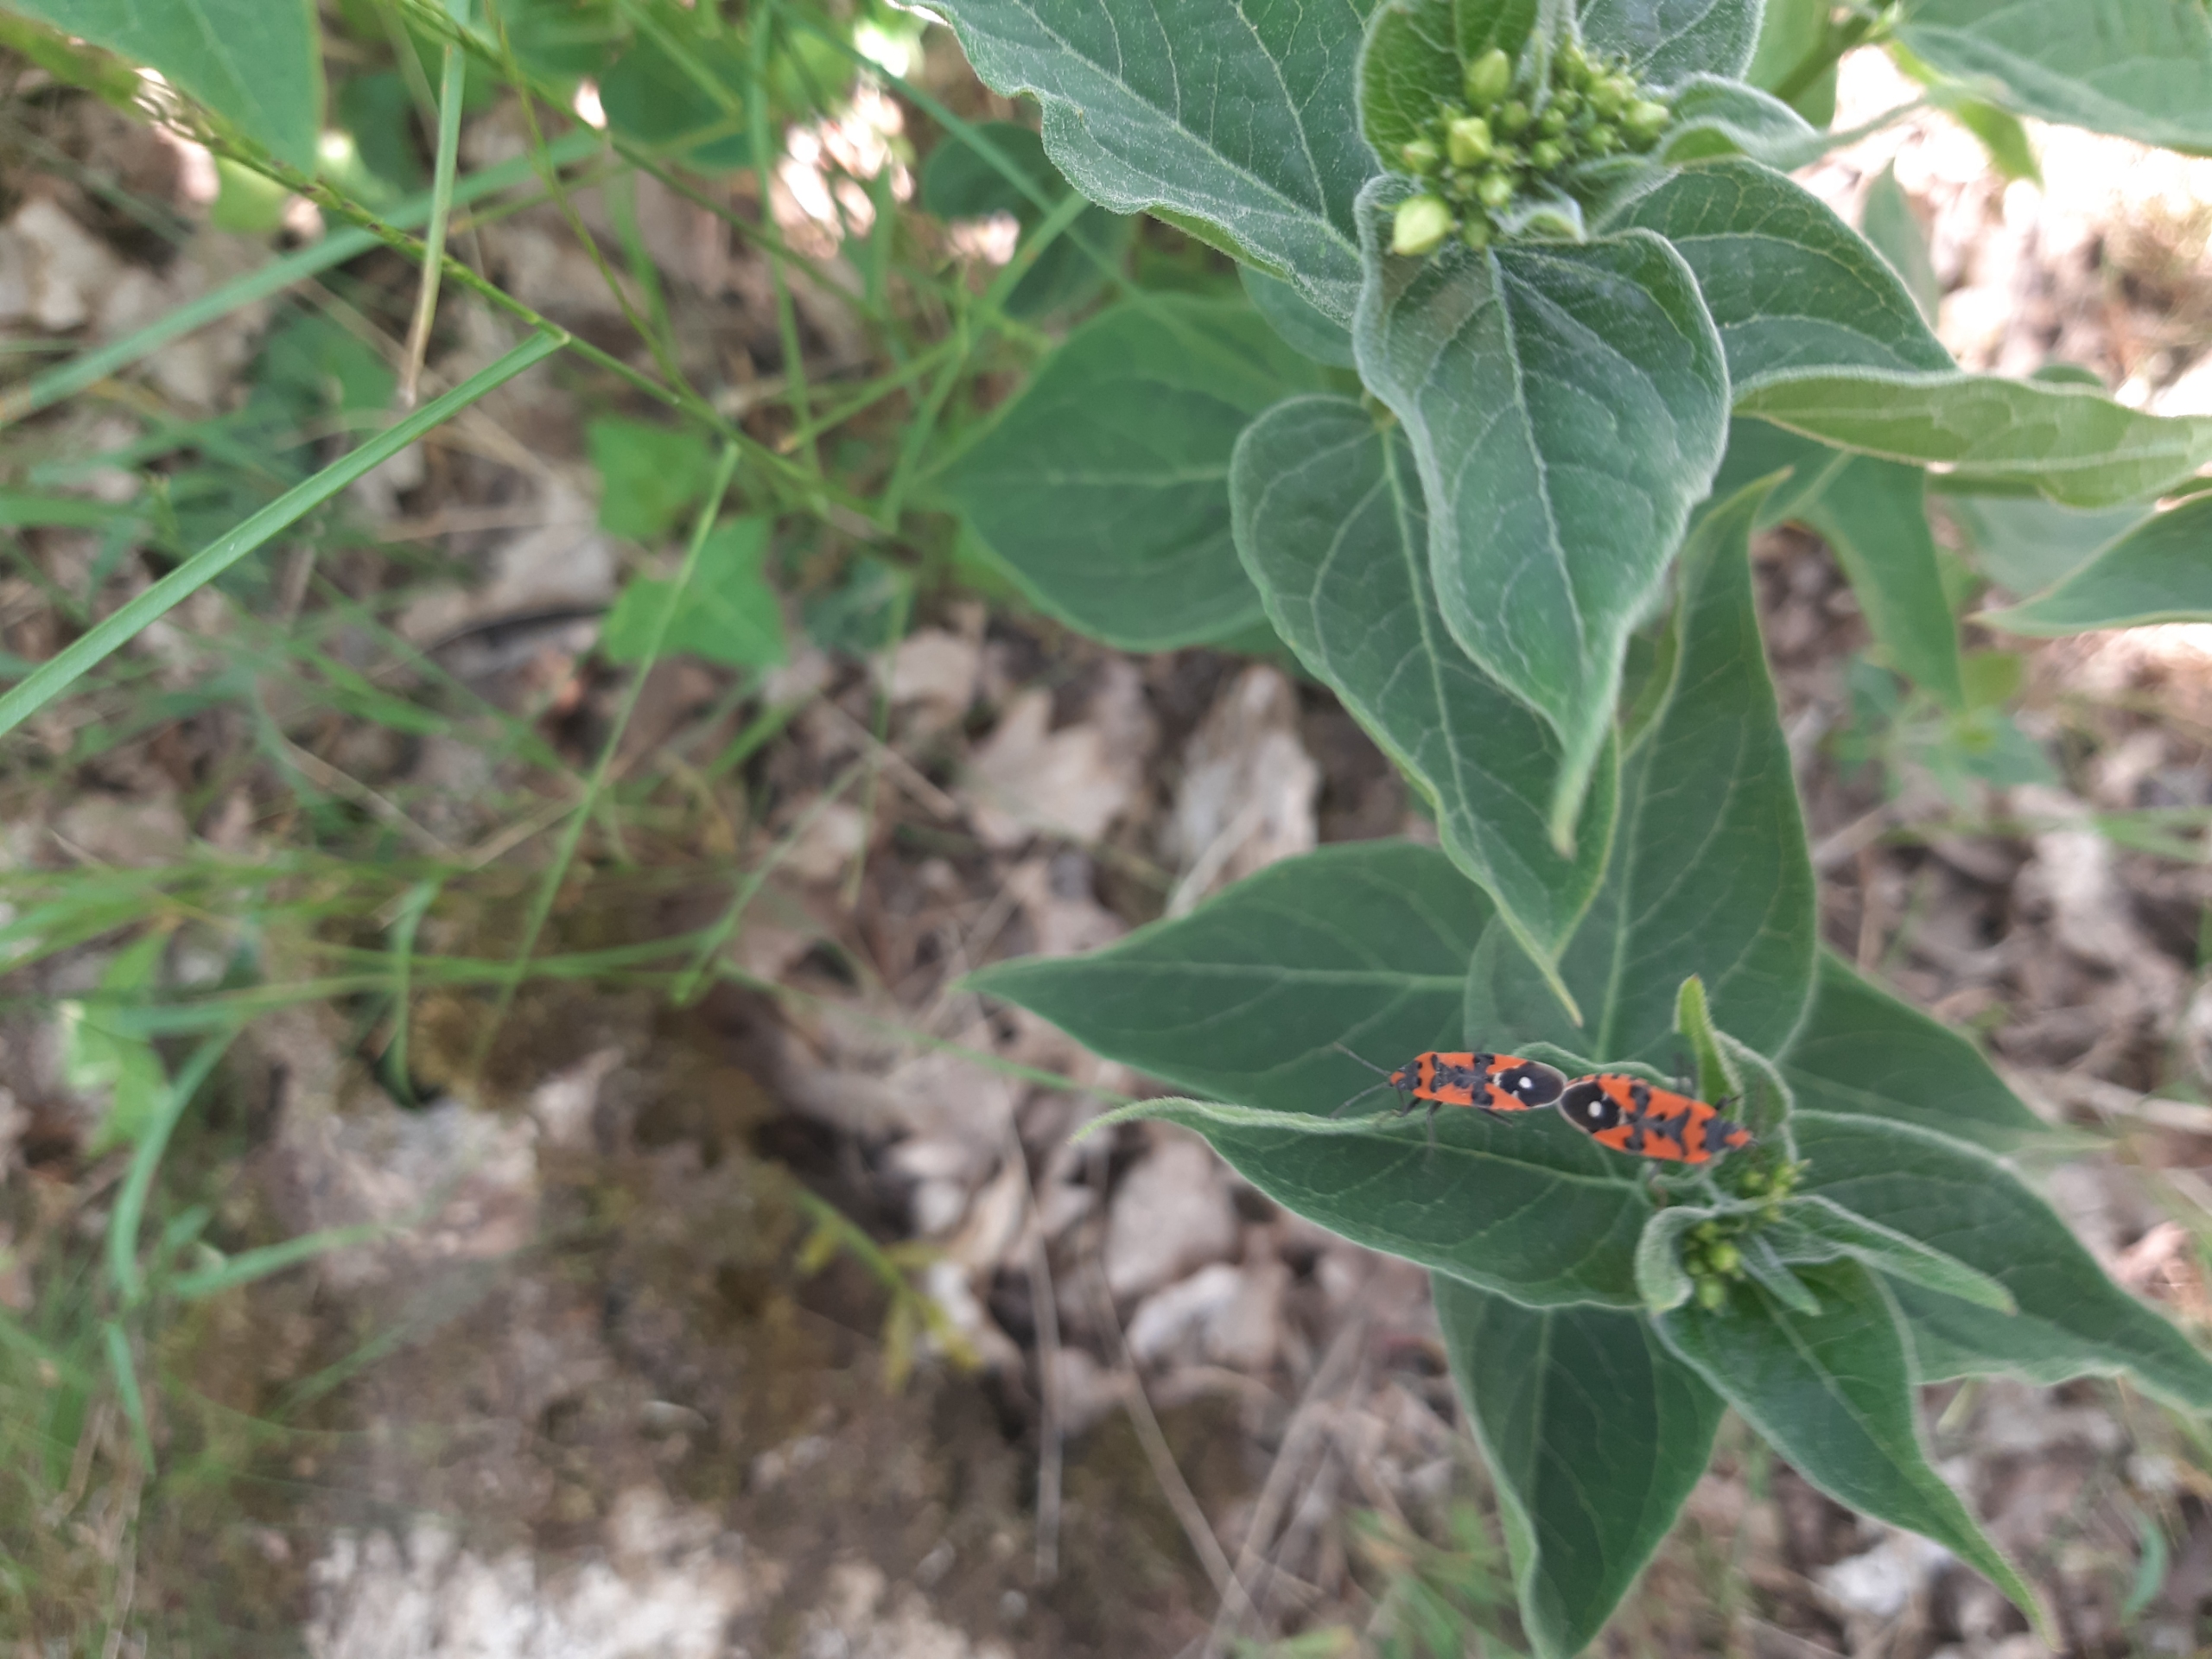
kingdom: Animalia
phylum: Arthropoda
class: Insecta
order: Hemiptera
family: Lygaeidae
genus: Lygaeus
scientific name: Lygaeus equestris
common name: Soldatertæge
